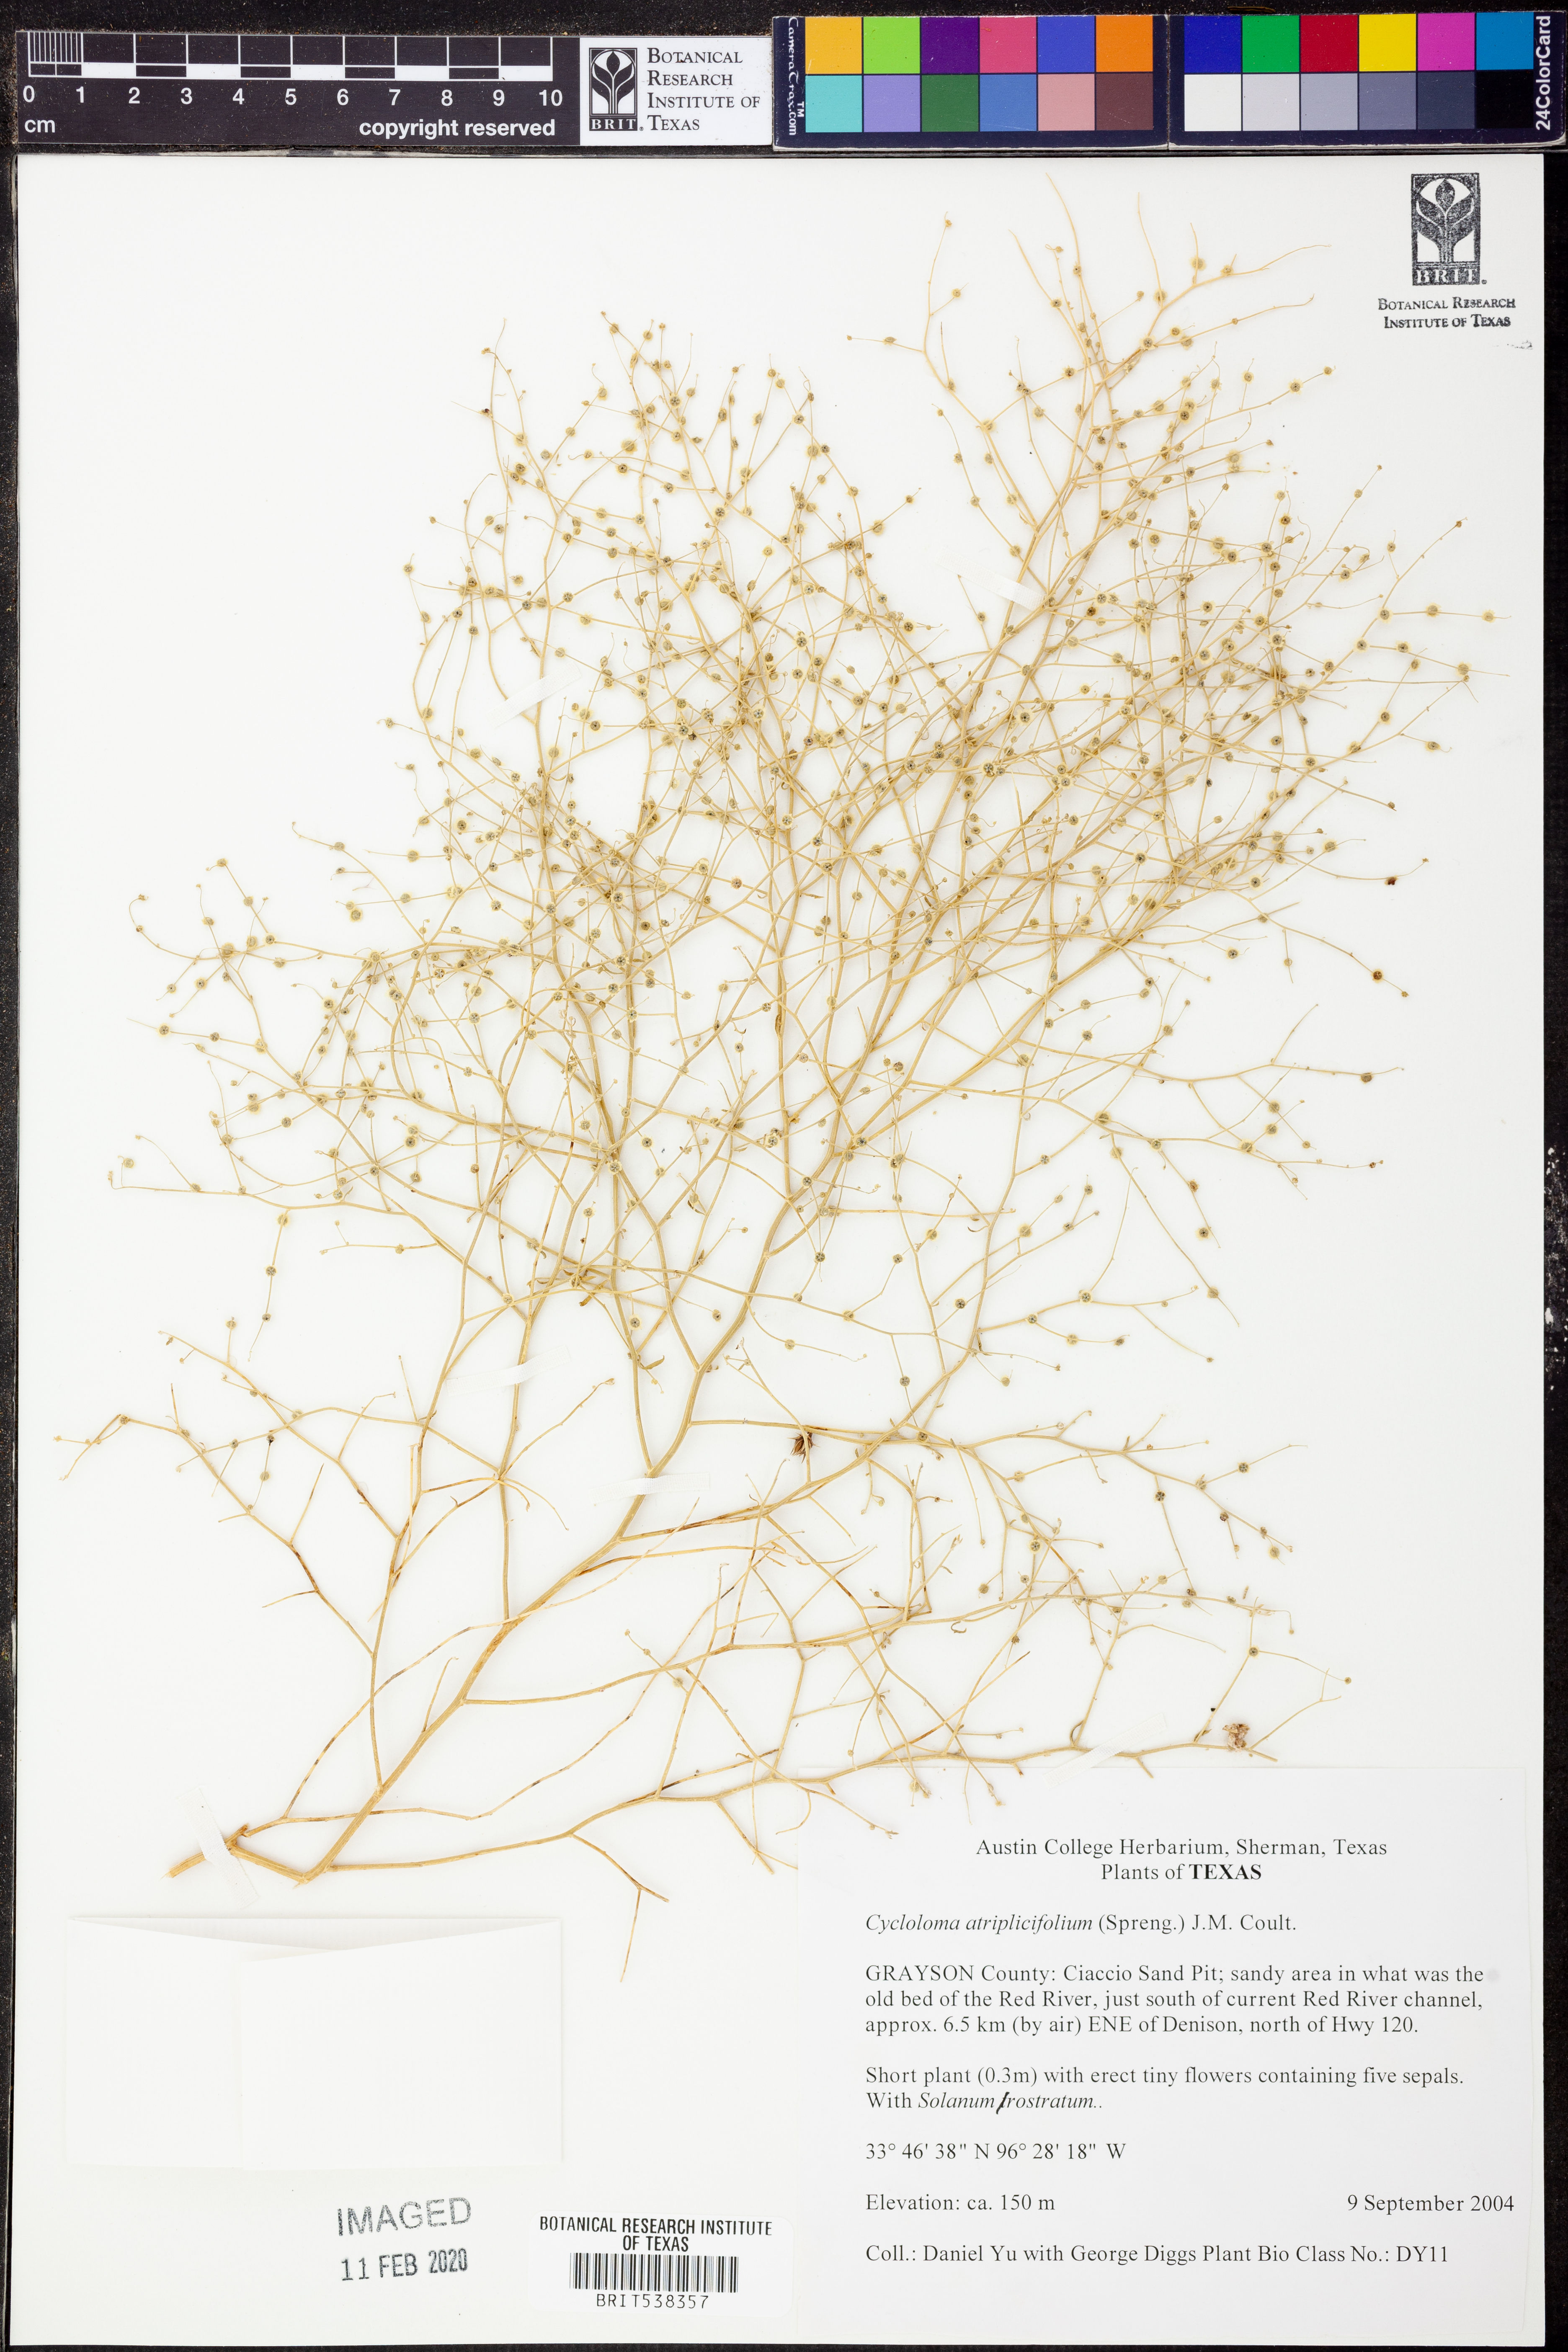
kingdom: Plantae
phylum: Tracheophyta
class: Magnoliopsida
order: Caryophyllales
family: Amaranthaceae
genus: Dysphania
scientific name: Dysphania atriplicifolia
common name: Plains tumbleweed
